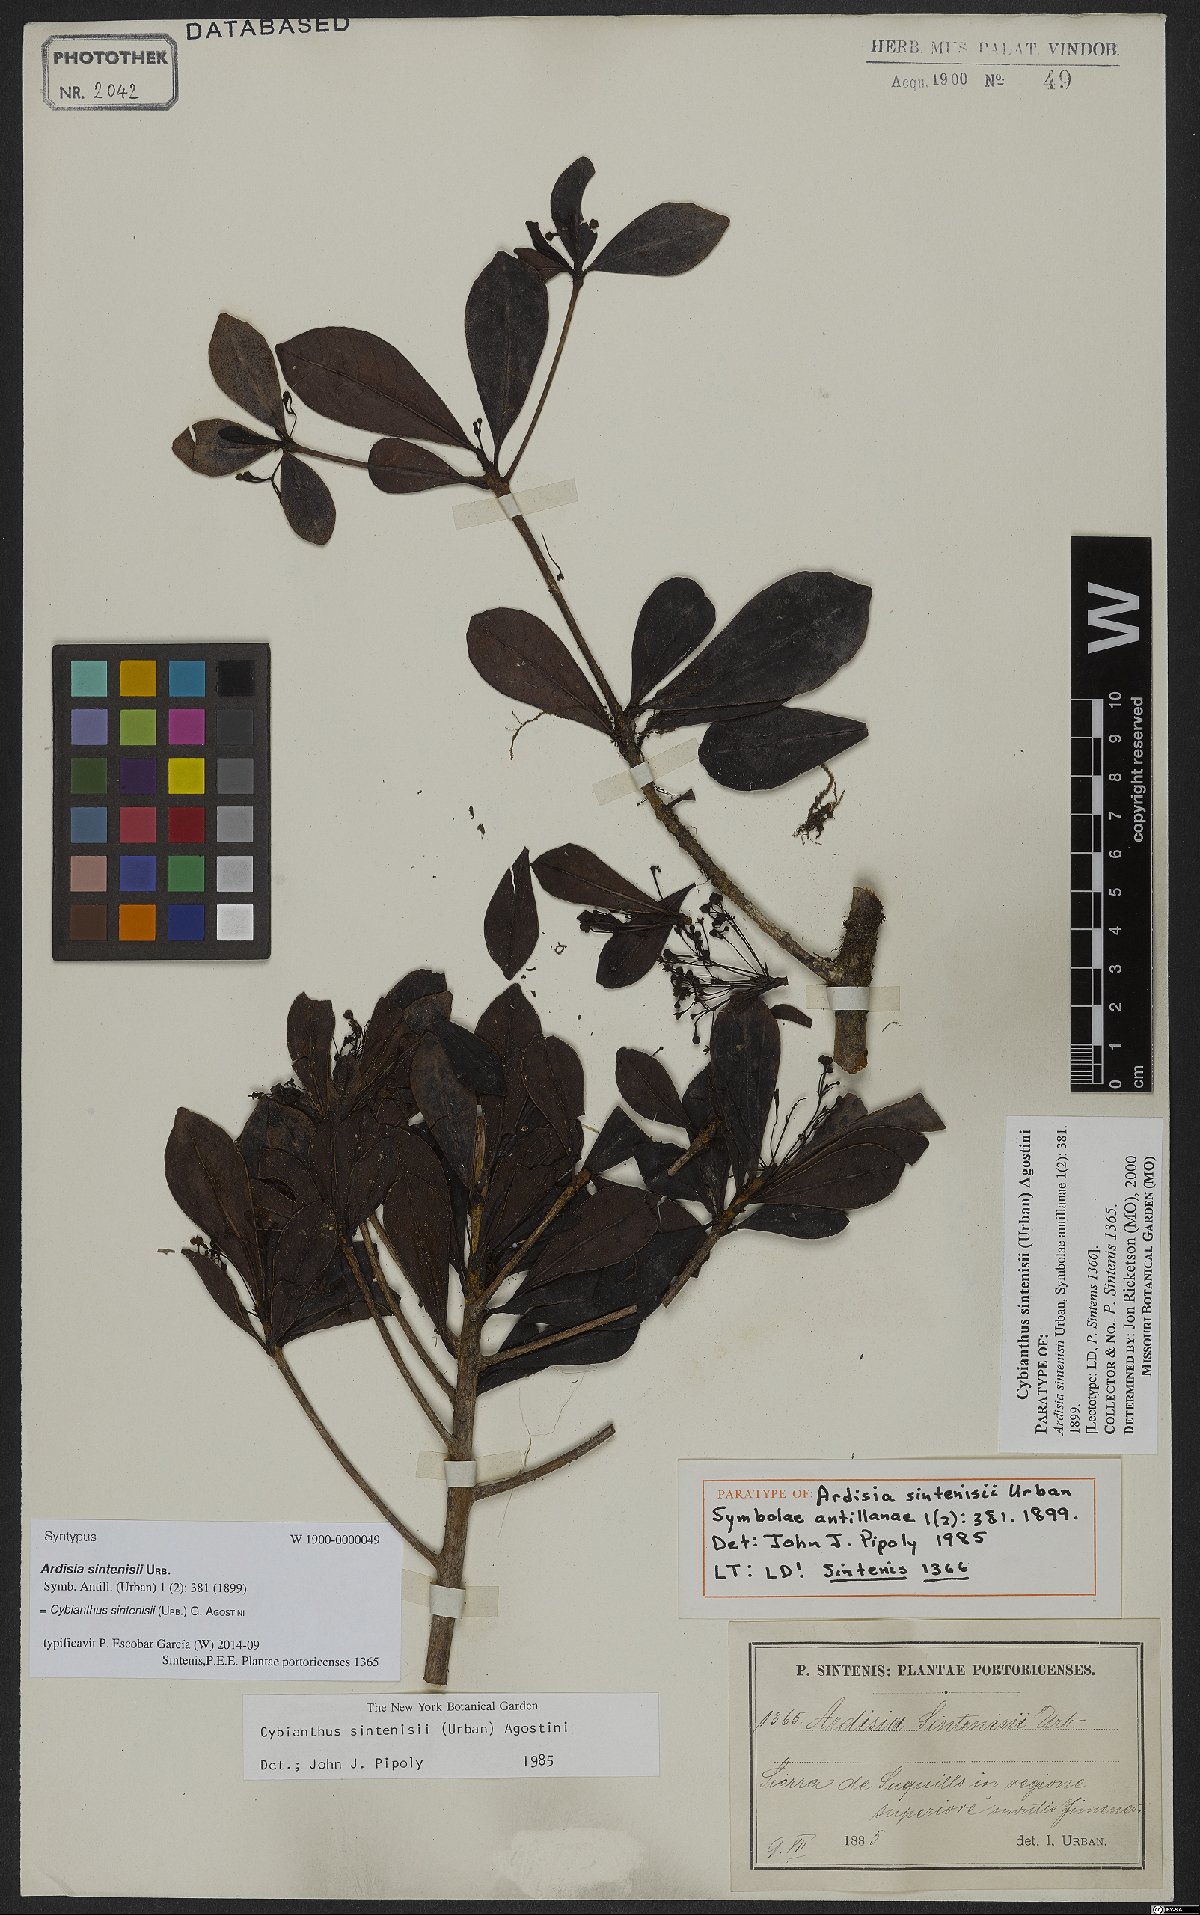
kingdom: Plantae
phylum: Tracheophyta
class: Magnoliopsida
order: Ericales
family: Primulaceae
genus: Cybianthus
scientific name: Cybianthus sintenisii
